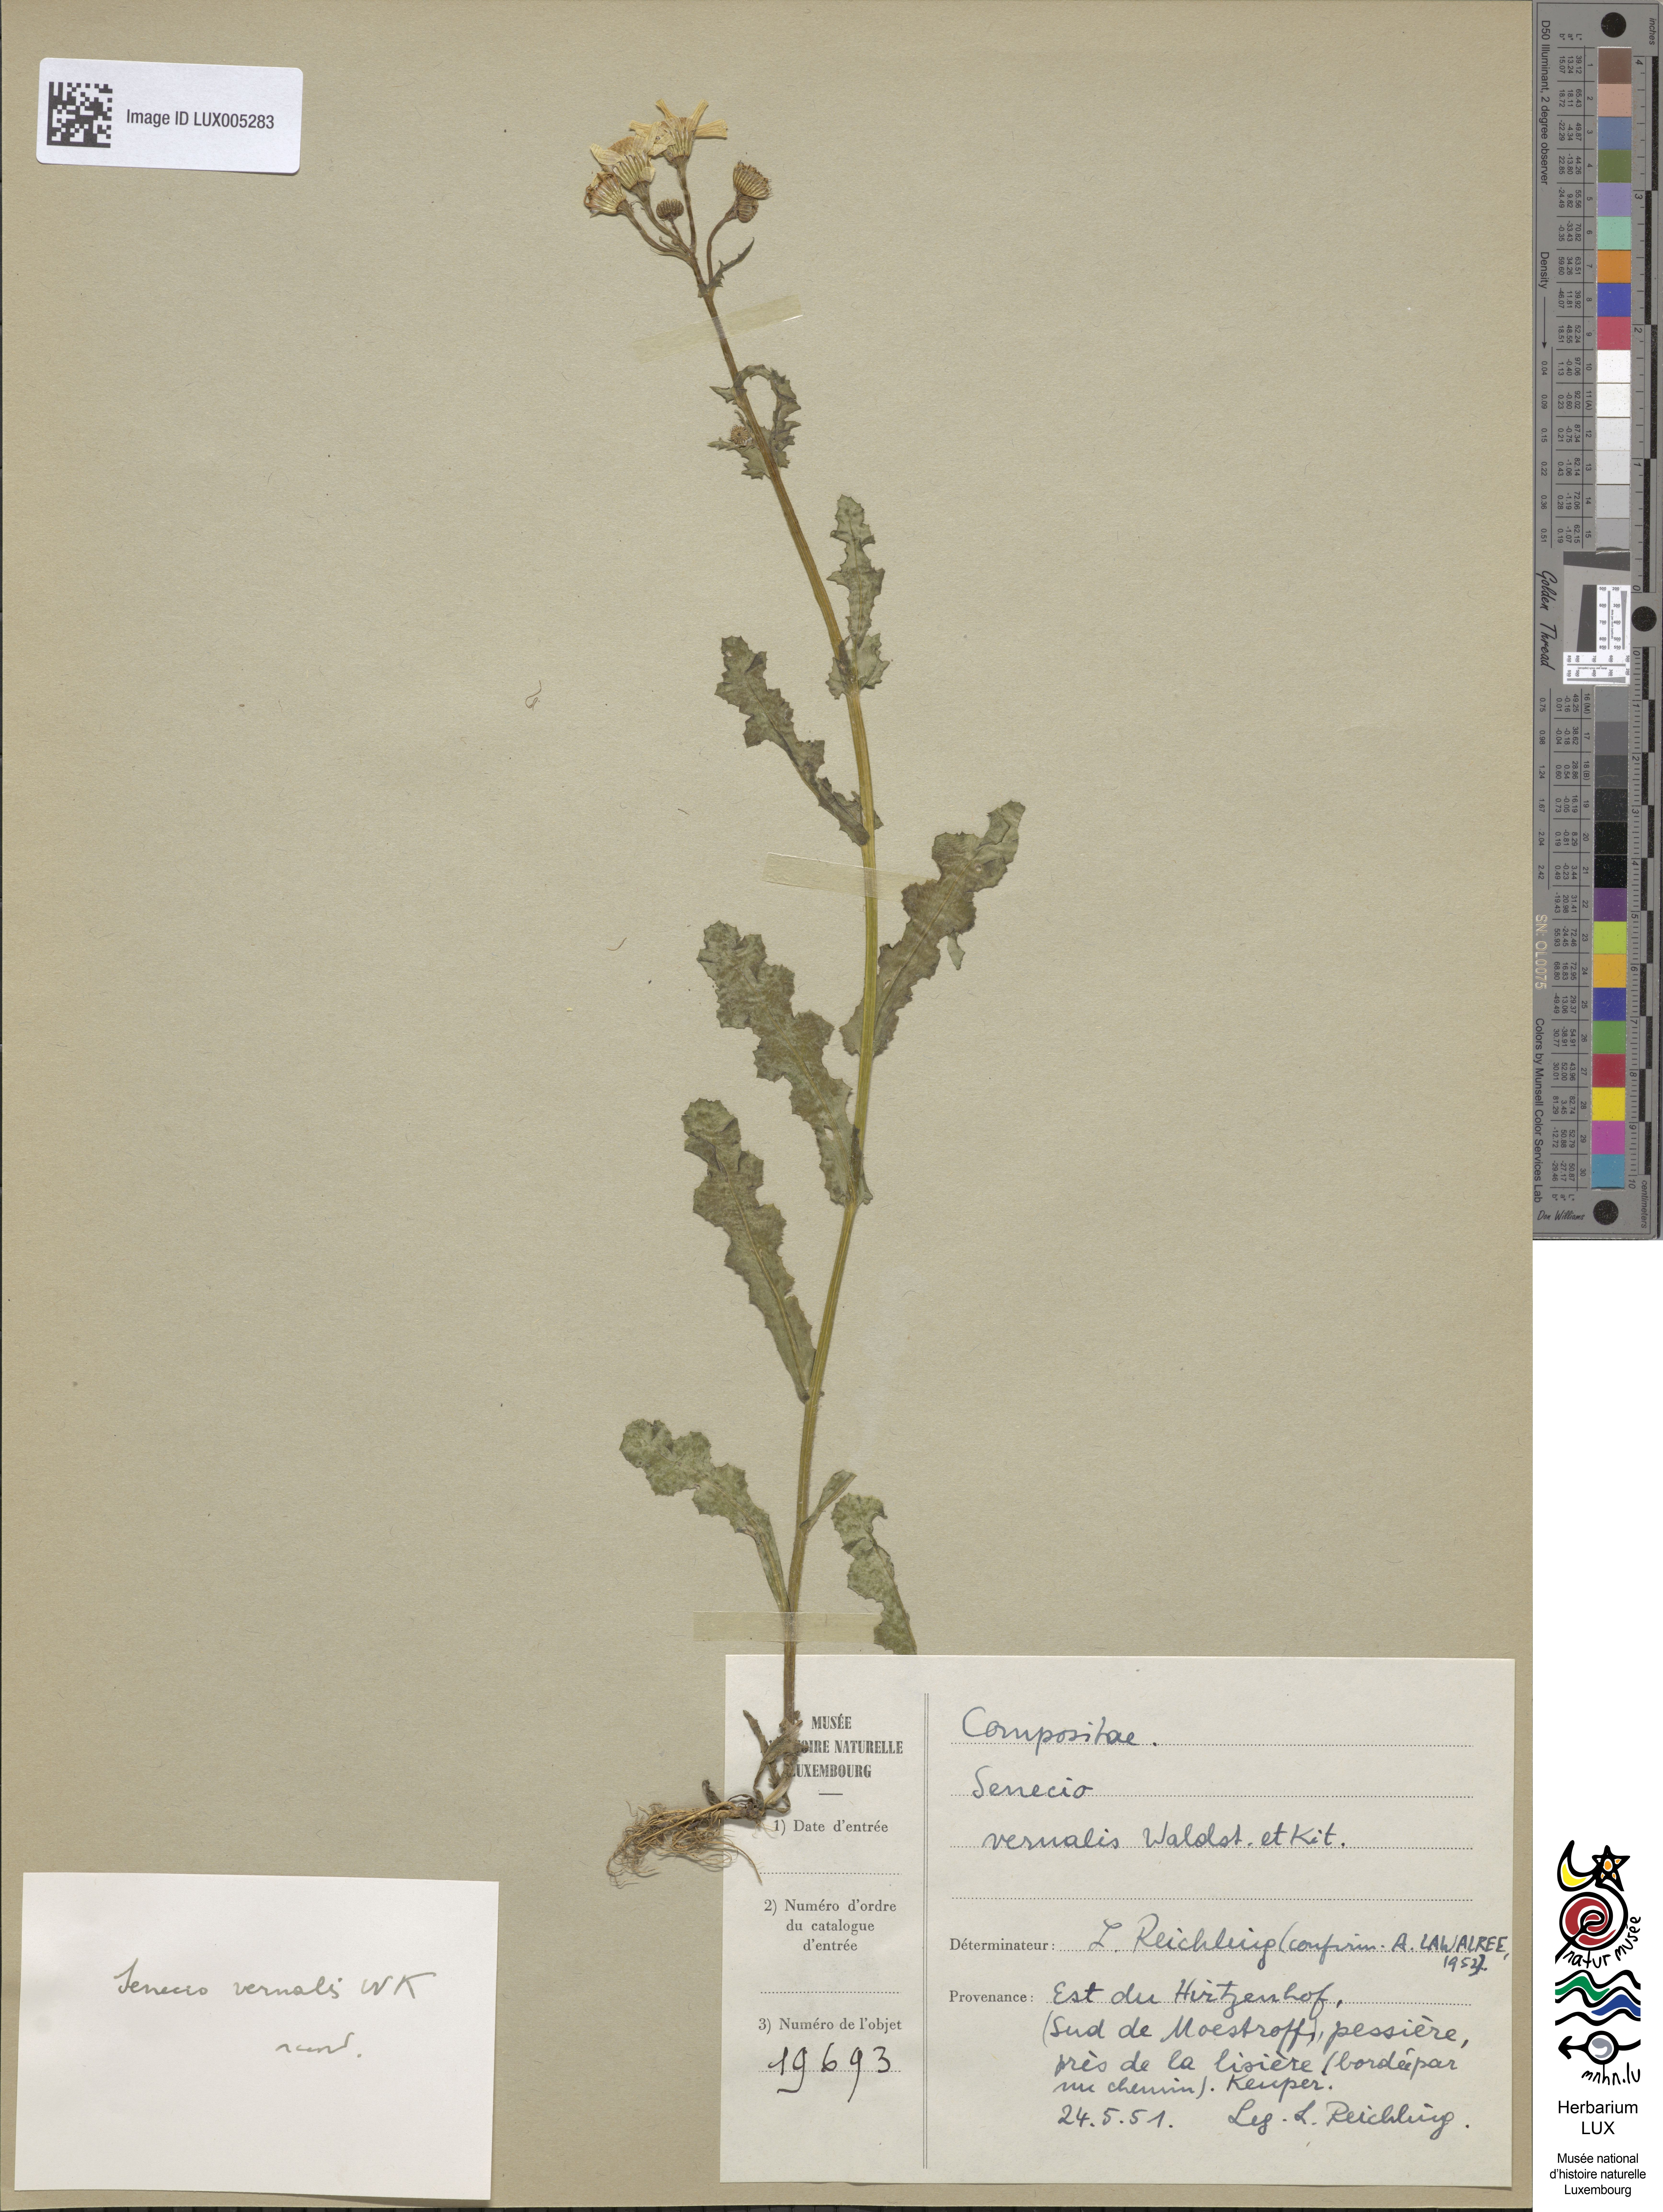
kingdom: Plantae
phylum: Tracheophyta
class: Magnoliopsida
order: Asterales
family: Asteraceae
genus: Senecio
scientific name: Senecio vernalis
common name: Eastern groundsel
